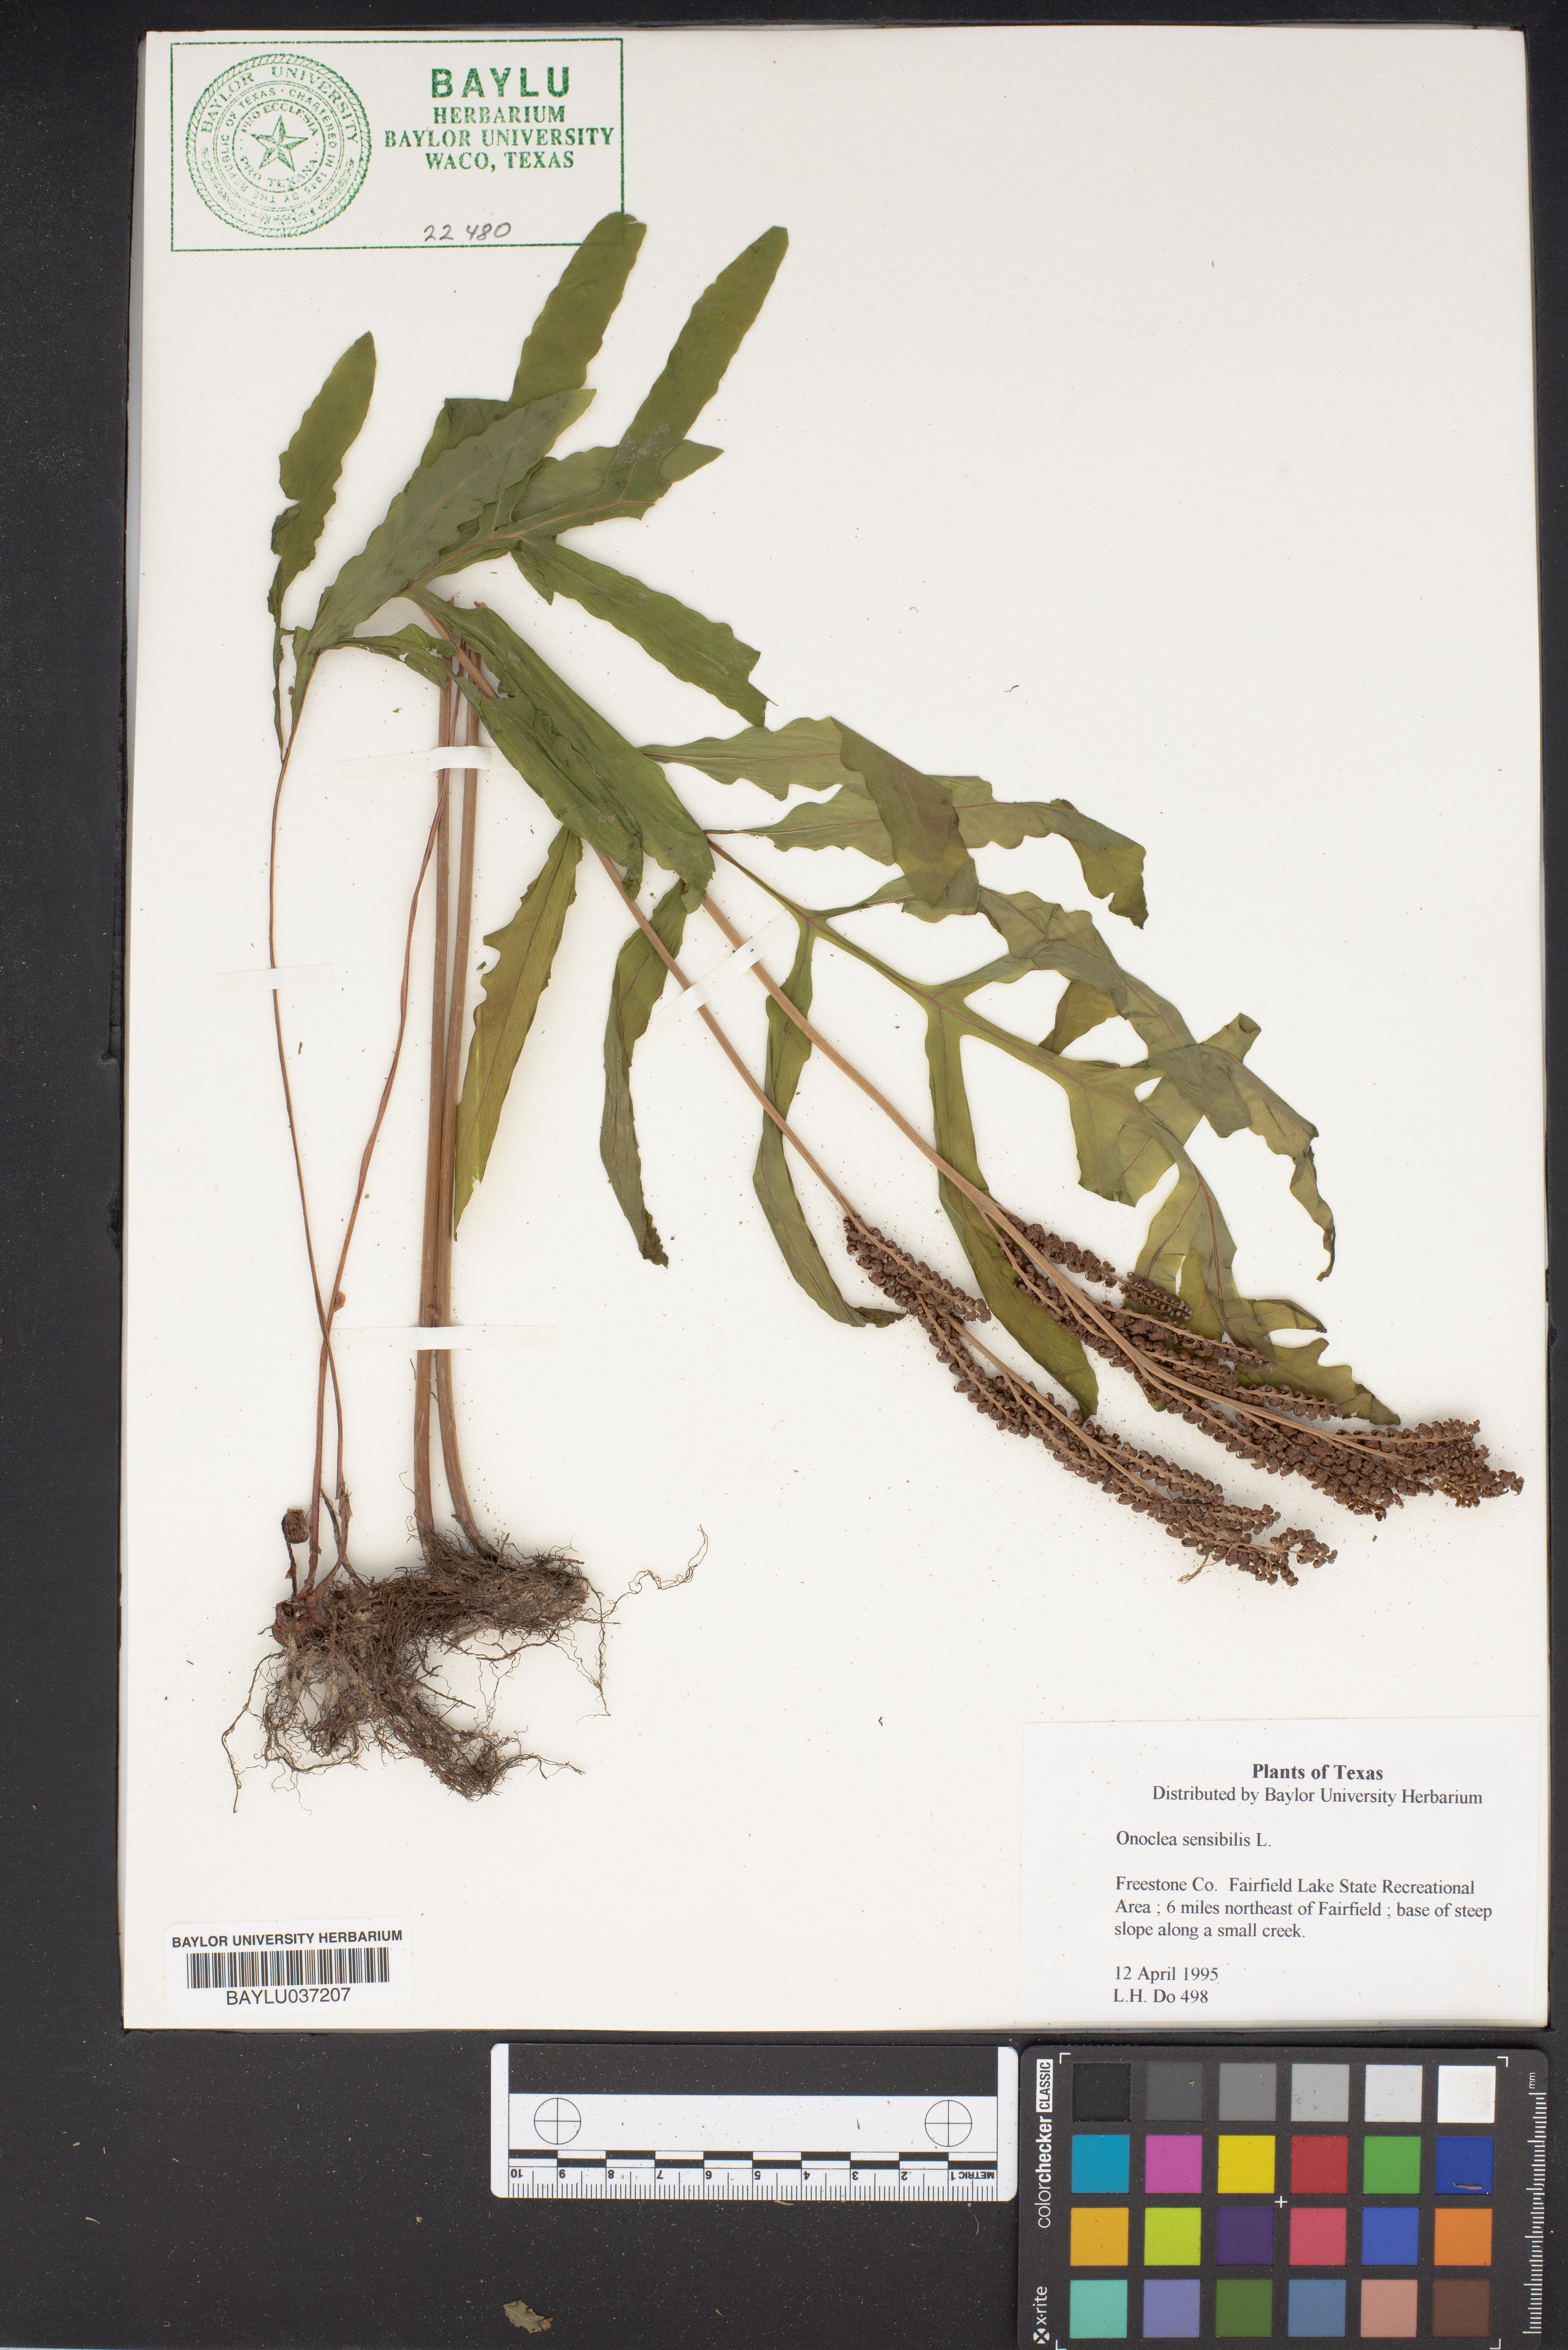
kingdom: Plantae
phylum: Tracheophyta
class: Polypodiopsida
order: Polypodiales
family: Onocleaceae
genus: Onoclea
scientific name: Onoclea sensibilis
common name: Sensitive fern
